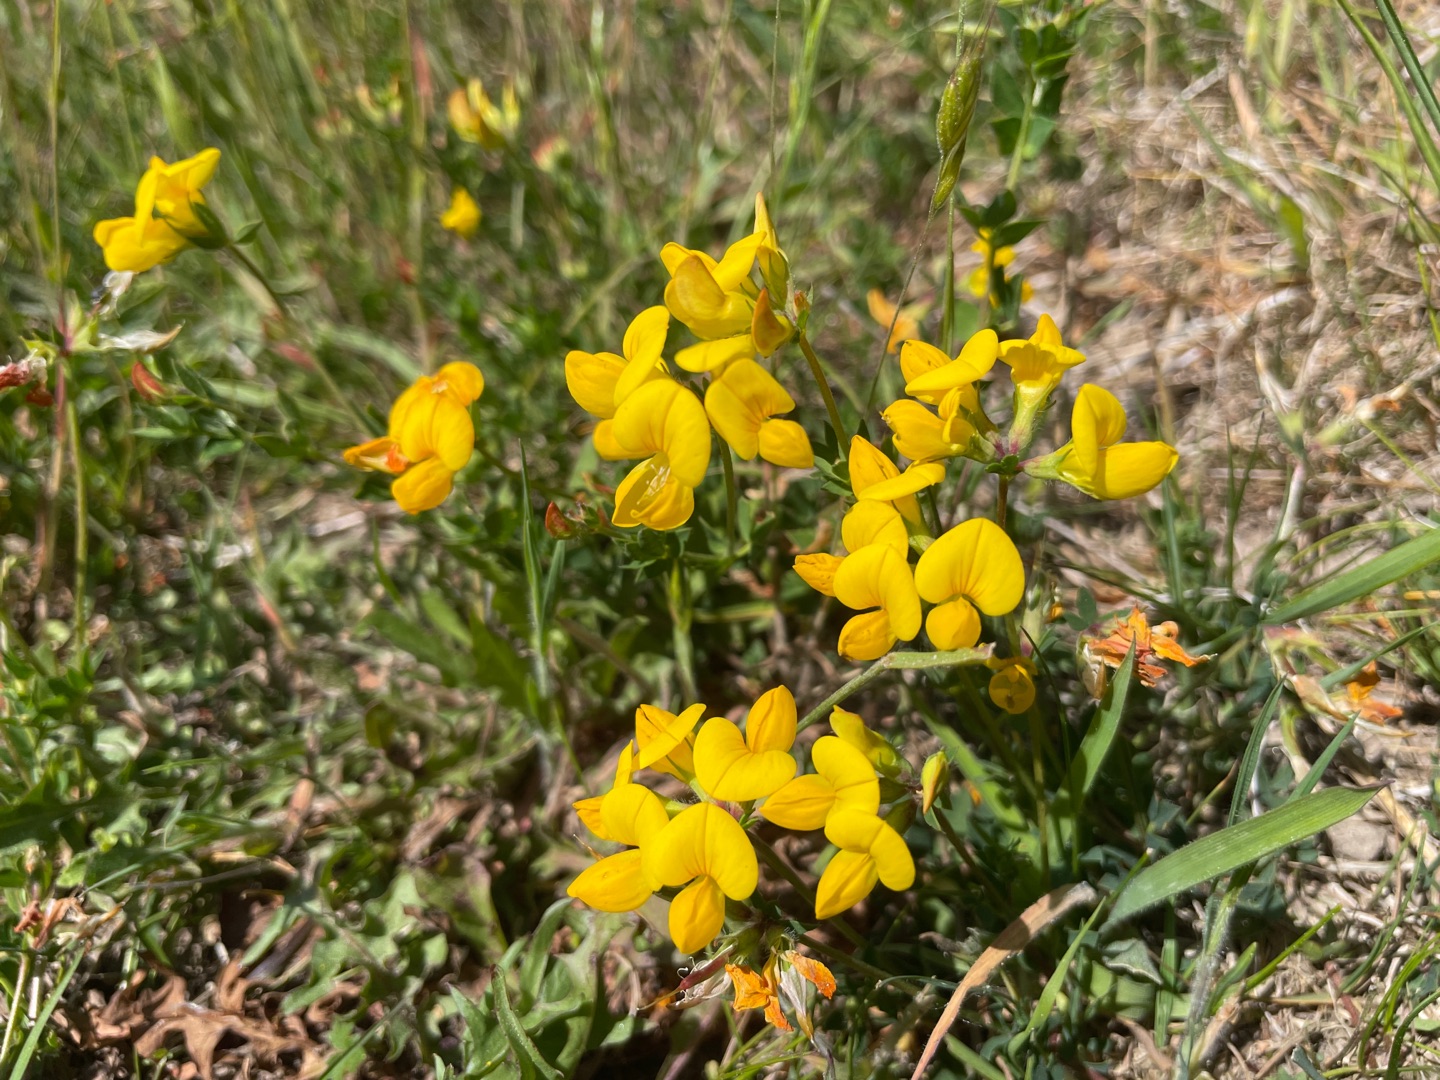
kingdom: Plantae
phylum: Tracheophyta
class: Magnoliopsida
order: Fabales
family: Fabaceae
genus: Lotus
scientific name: Lotus corniculatus
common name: Almindelig kællingetand
